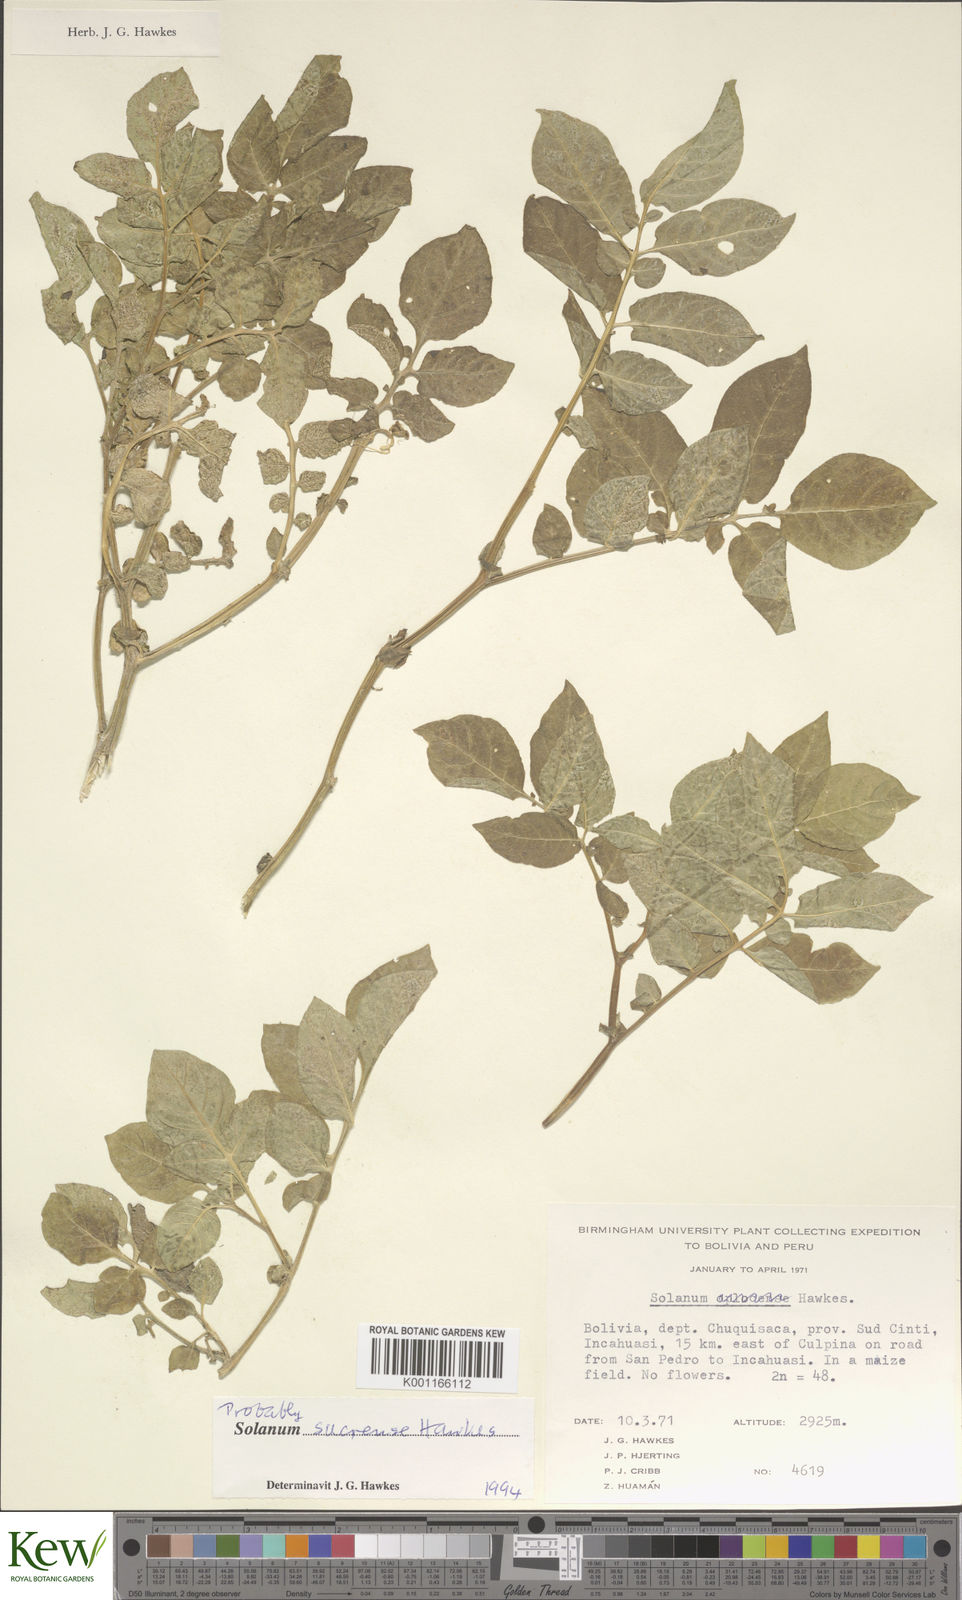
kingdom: Plantae
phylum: Tracheophyta
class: Magnoliopsida
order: Solanales
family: Solanaceae
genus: Solanum
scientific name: Solanum brevicaule
